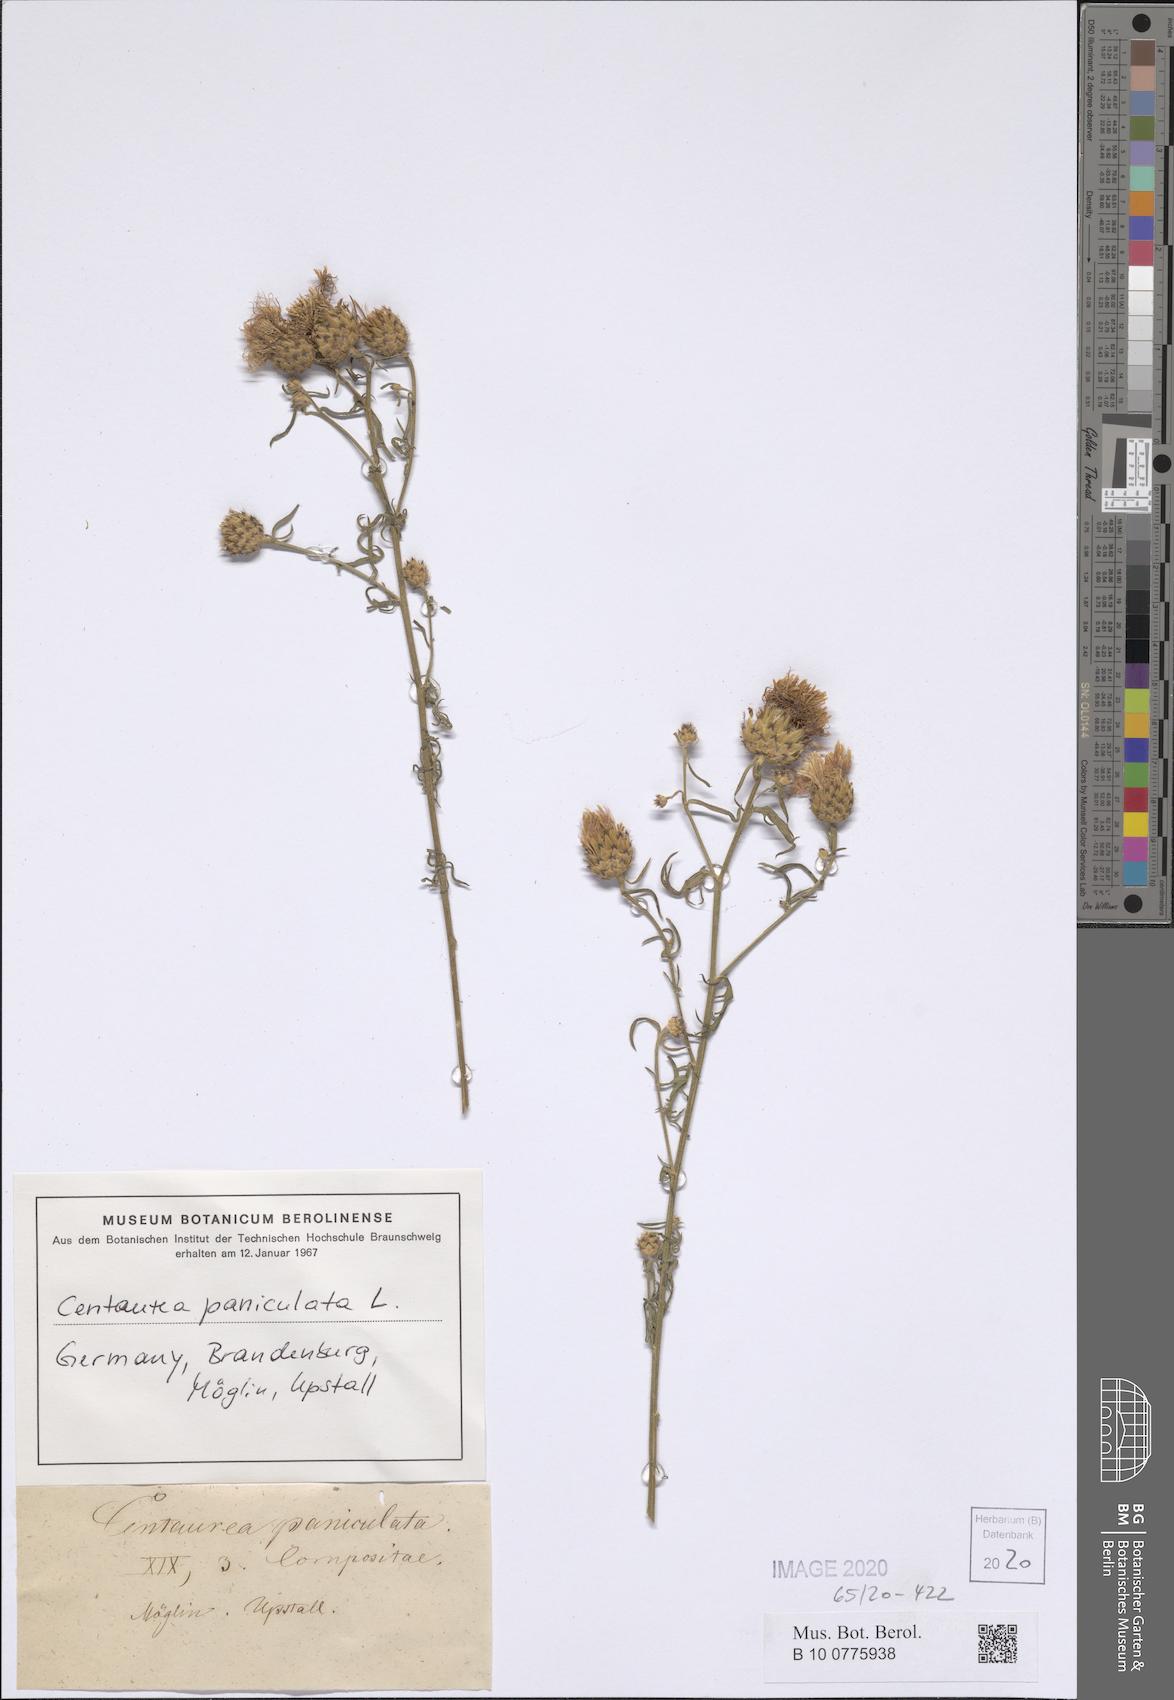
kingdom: Plantae
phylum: Tracheophyta
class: Magnoliopsida
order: Asterales
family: Asteraceae
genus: Centaurea
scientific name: Centaurea paniculata
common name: Jersey knapweed
